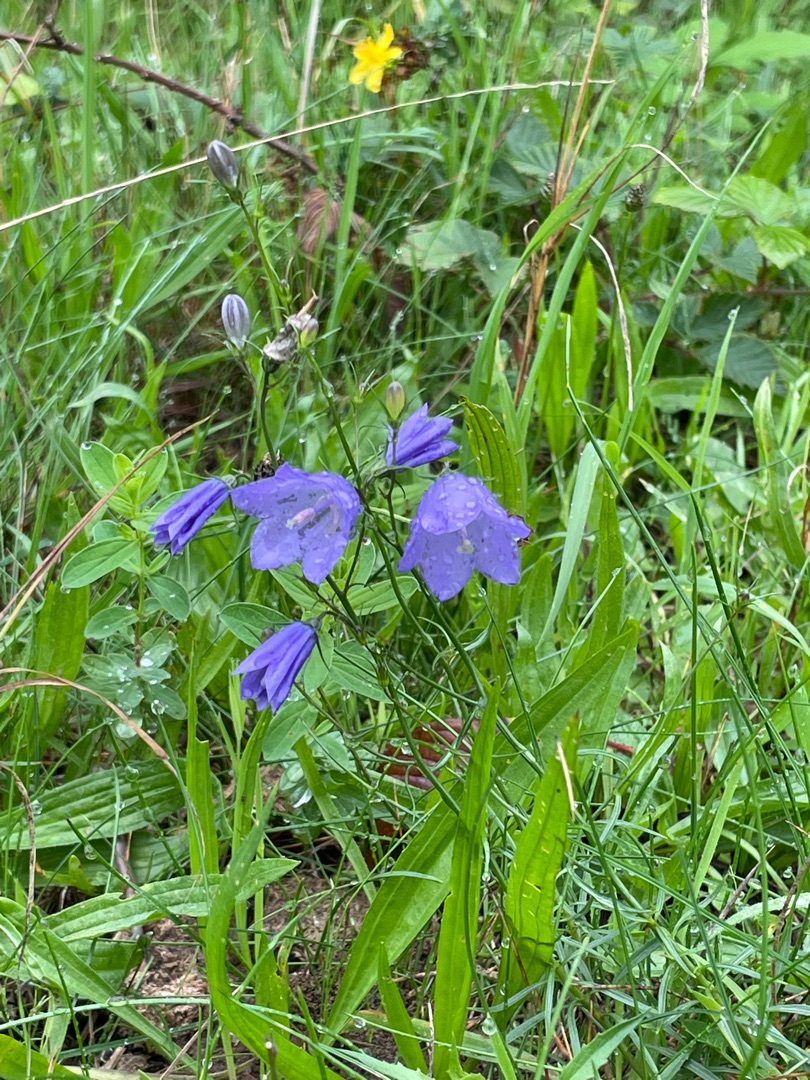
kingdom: Plantae
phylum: Tracheophyta
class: Magnoliopsida
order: Asterales
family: Campanulaceae
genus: Campanula
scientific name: Campanula rotundifolia
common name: Liden klokke
